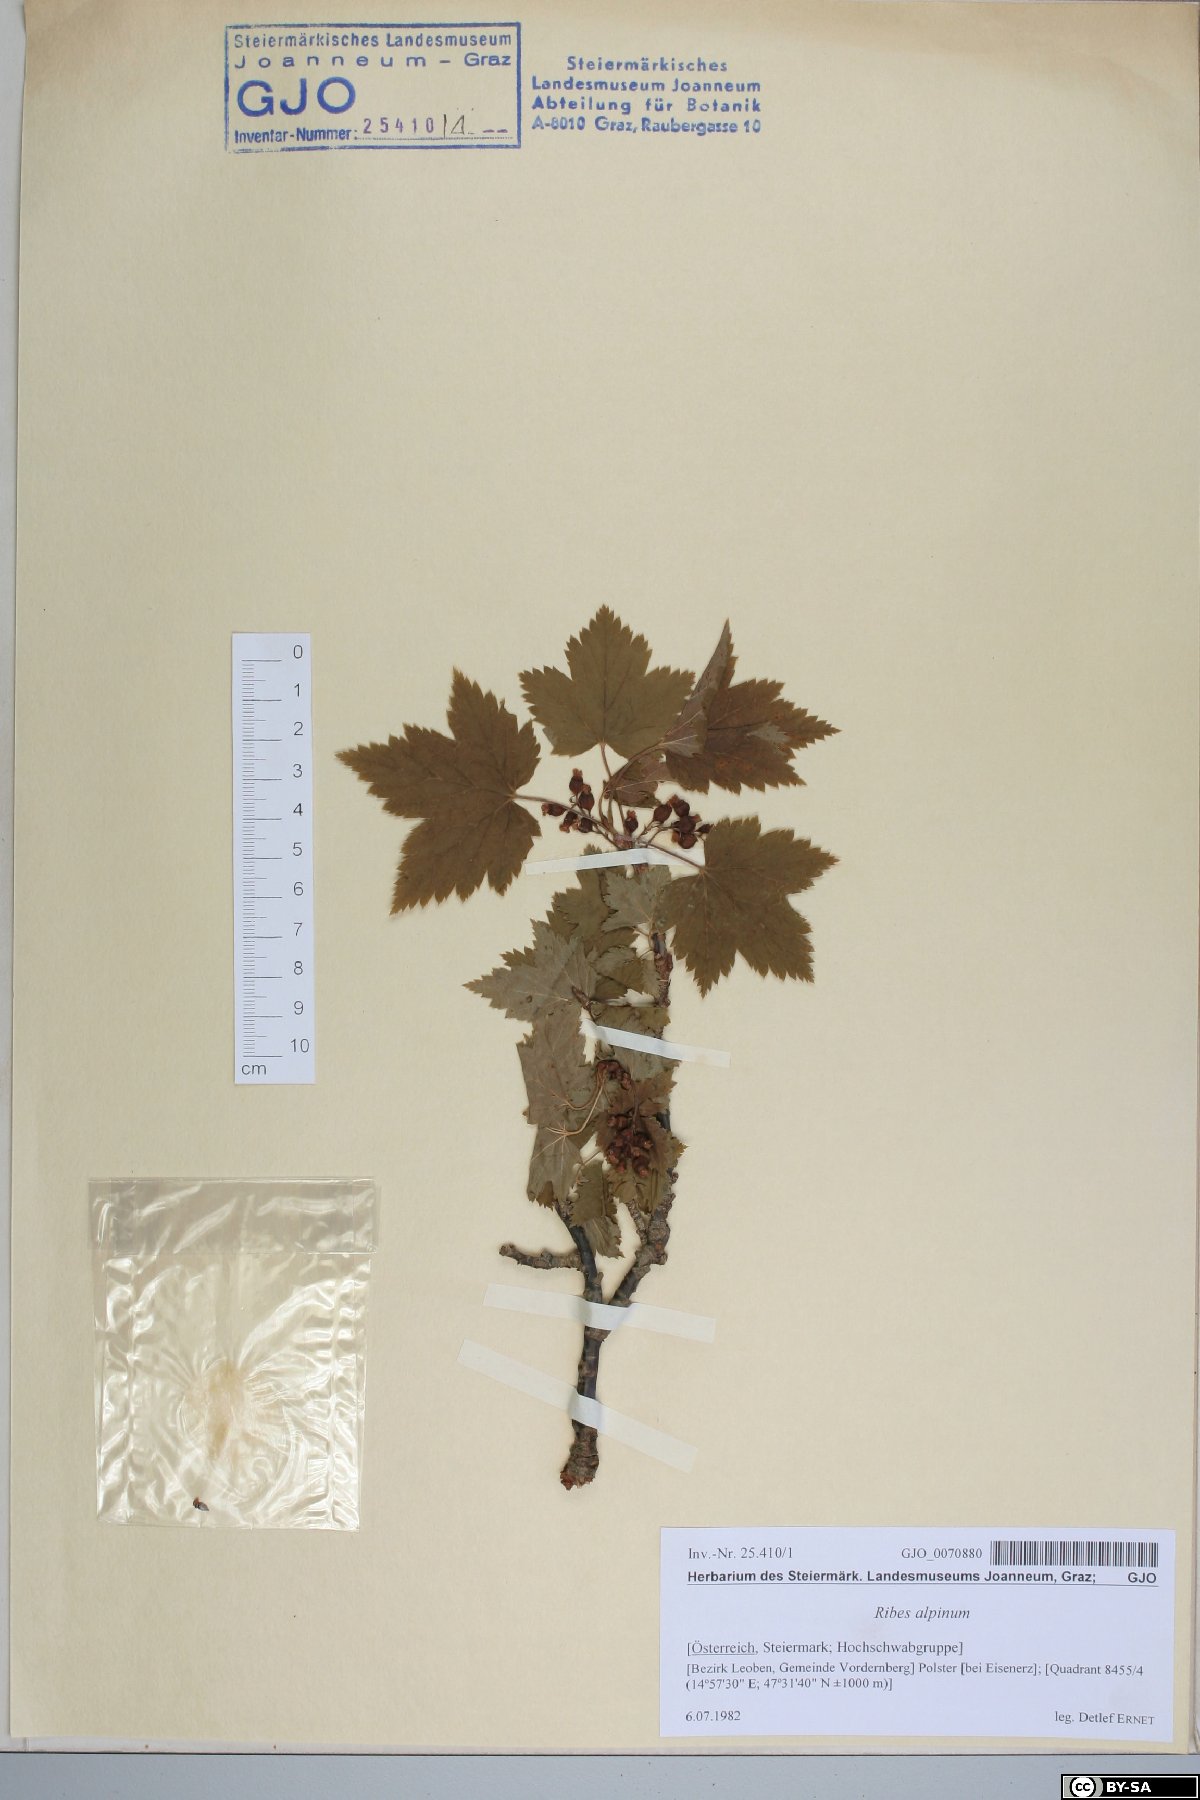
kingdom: Plantae
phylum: Tracheophyta
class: Magnoliopsida
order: Saxifragales
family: Grossulariaceae
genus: Ribes
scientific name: Ribes alpinum
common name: Alpine currant
